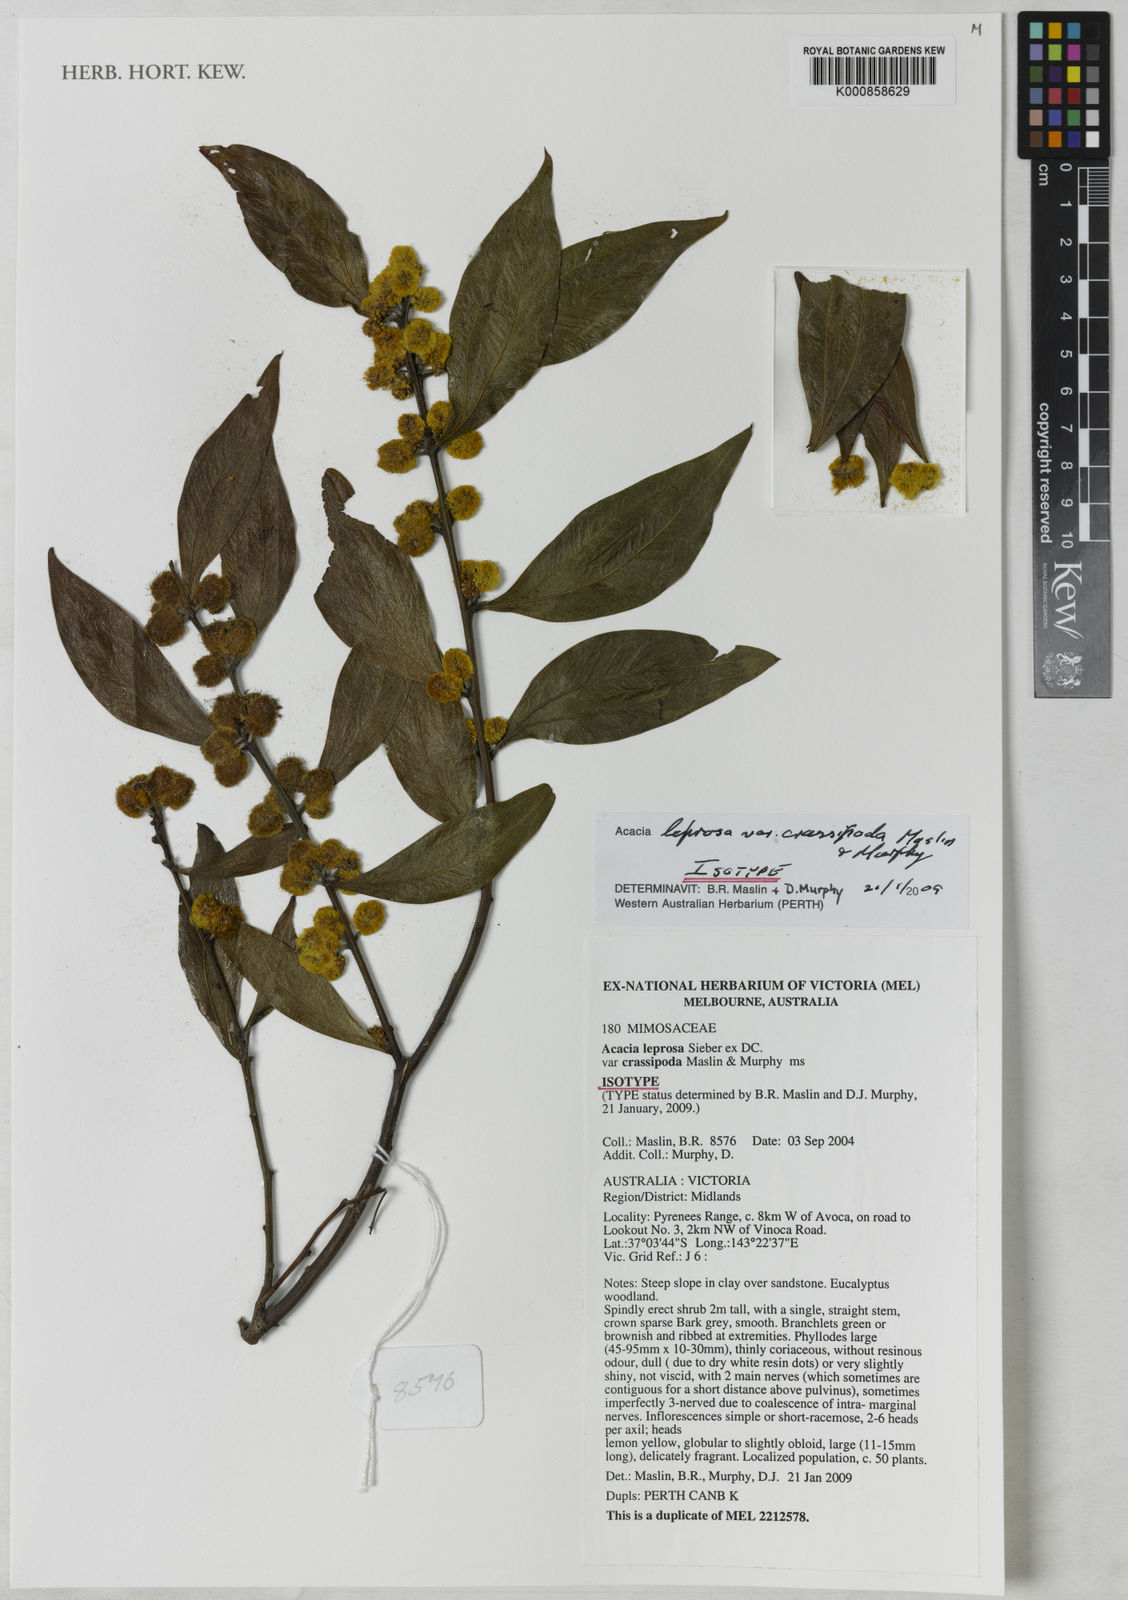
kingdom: Plantae
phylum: Tracheophyta
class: Magnoliopsida
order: Fabales
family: Fabaceae
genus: Acacia
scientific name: Acacia leprosa
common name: Cinnamon wattle
